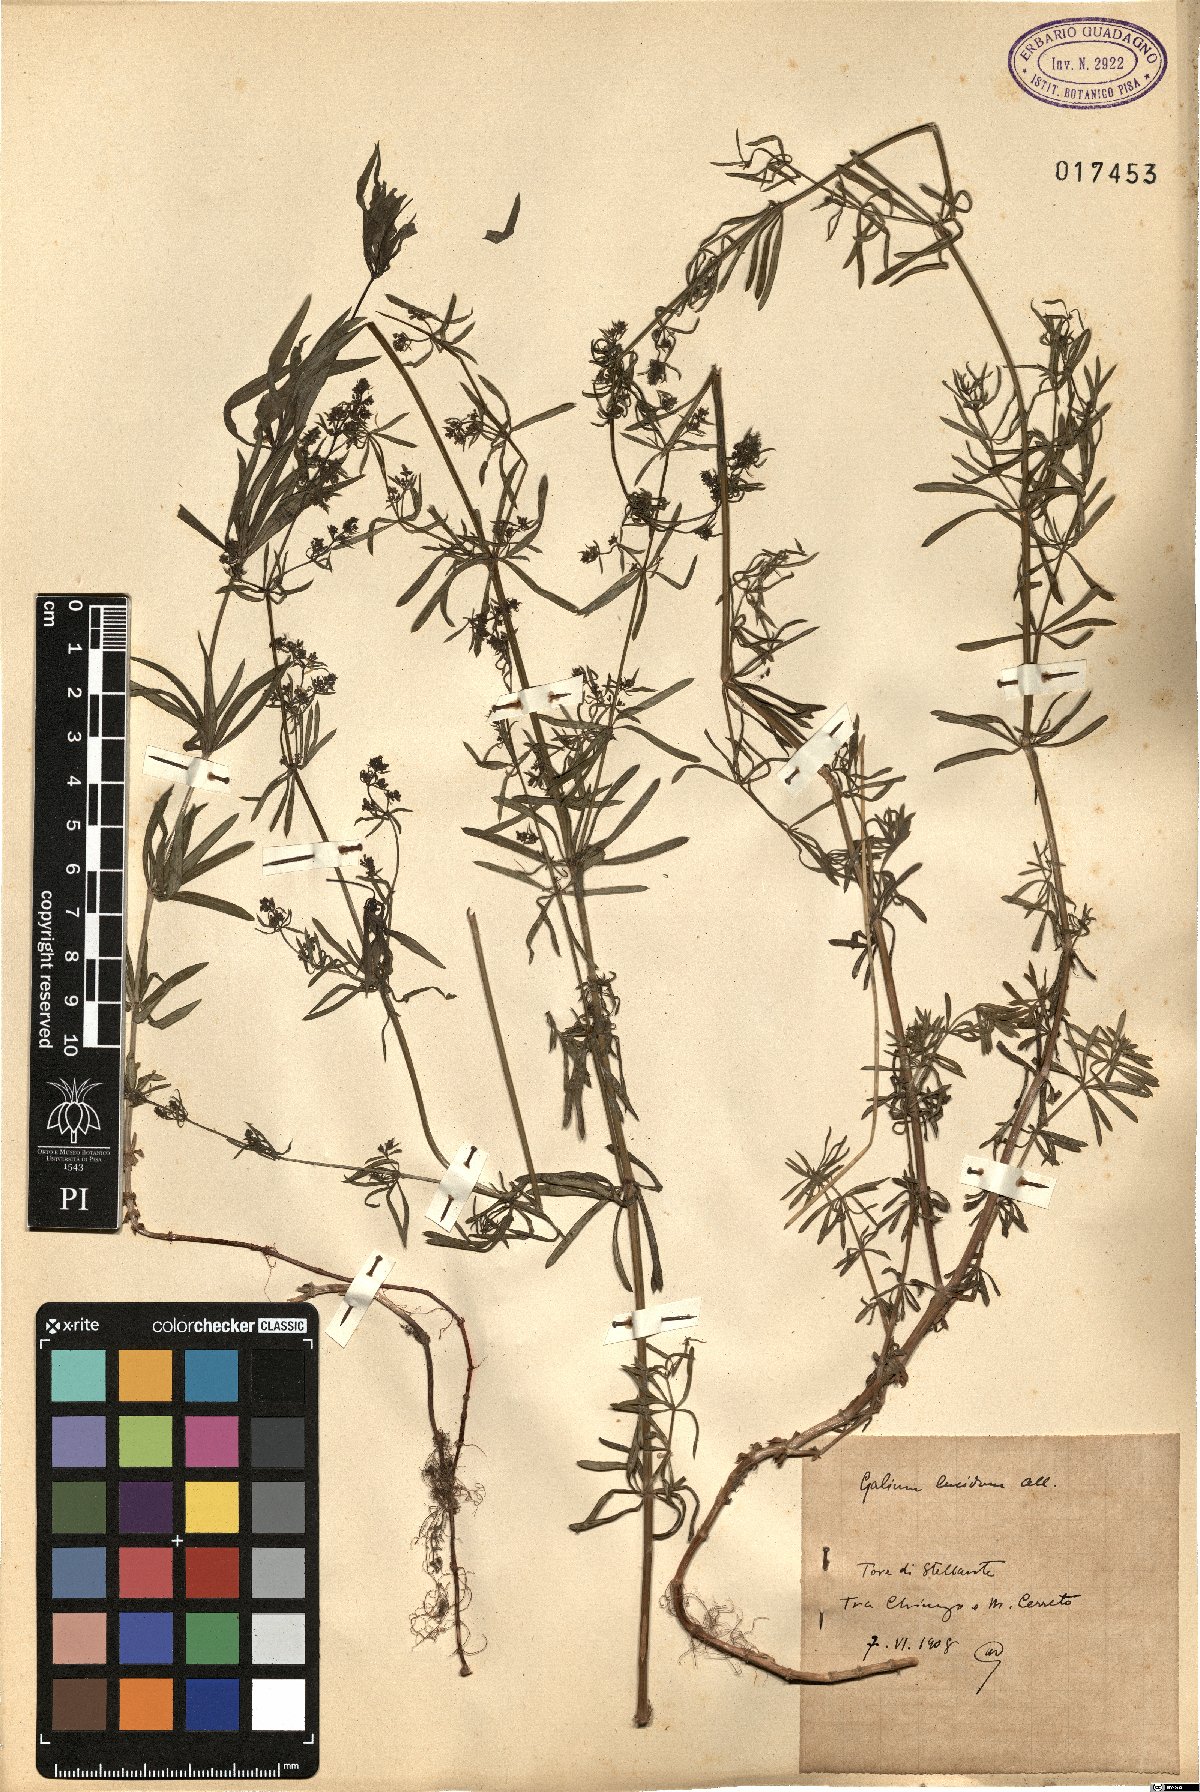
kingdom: Plantae
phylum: Tracheophyta
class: Magnoliopsida
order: Gentianales
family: Rubiaceae
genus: Galium
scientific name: Galium lucidum
